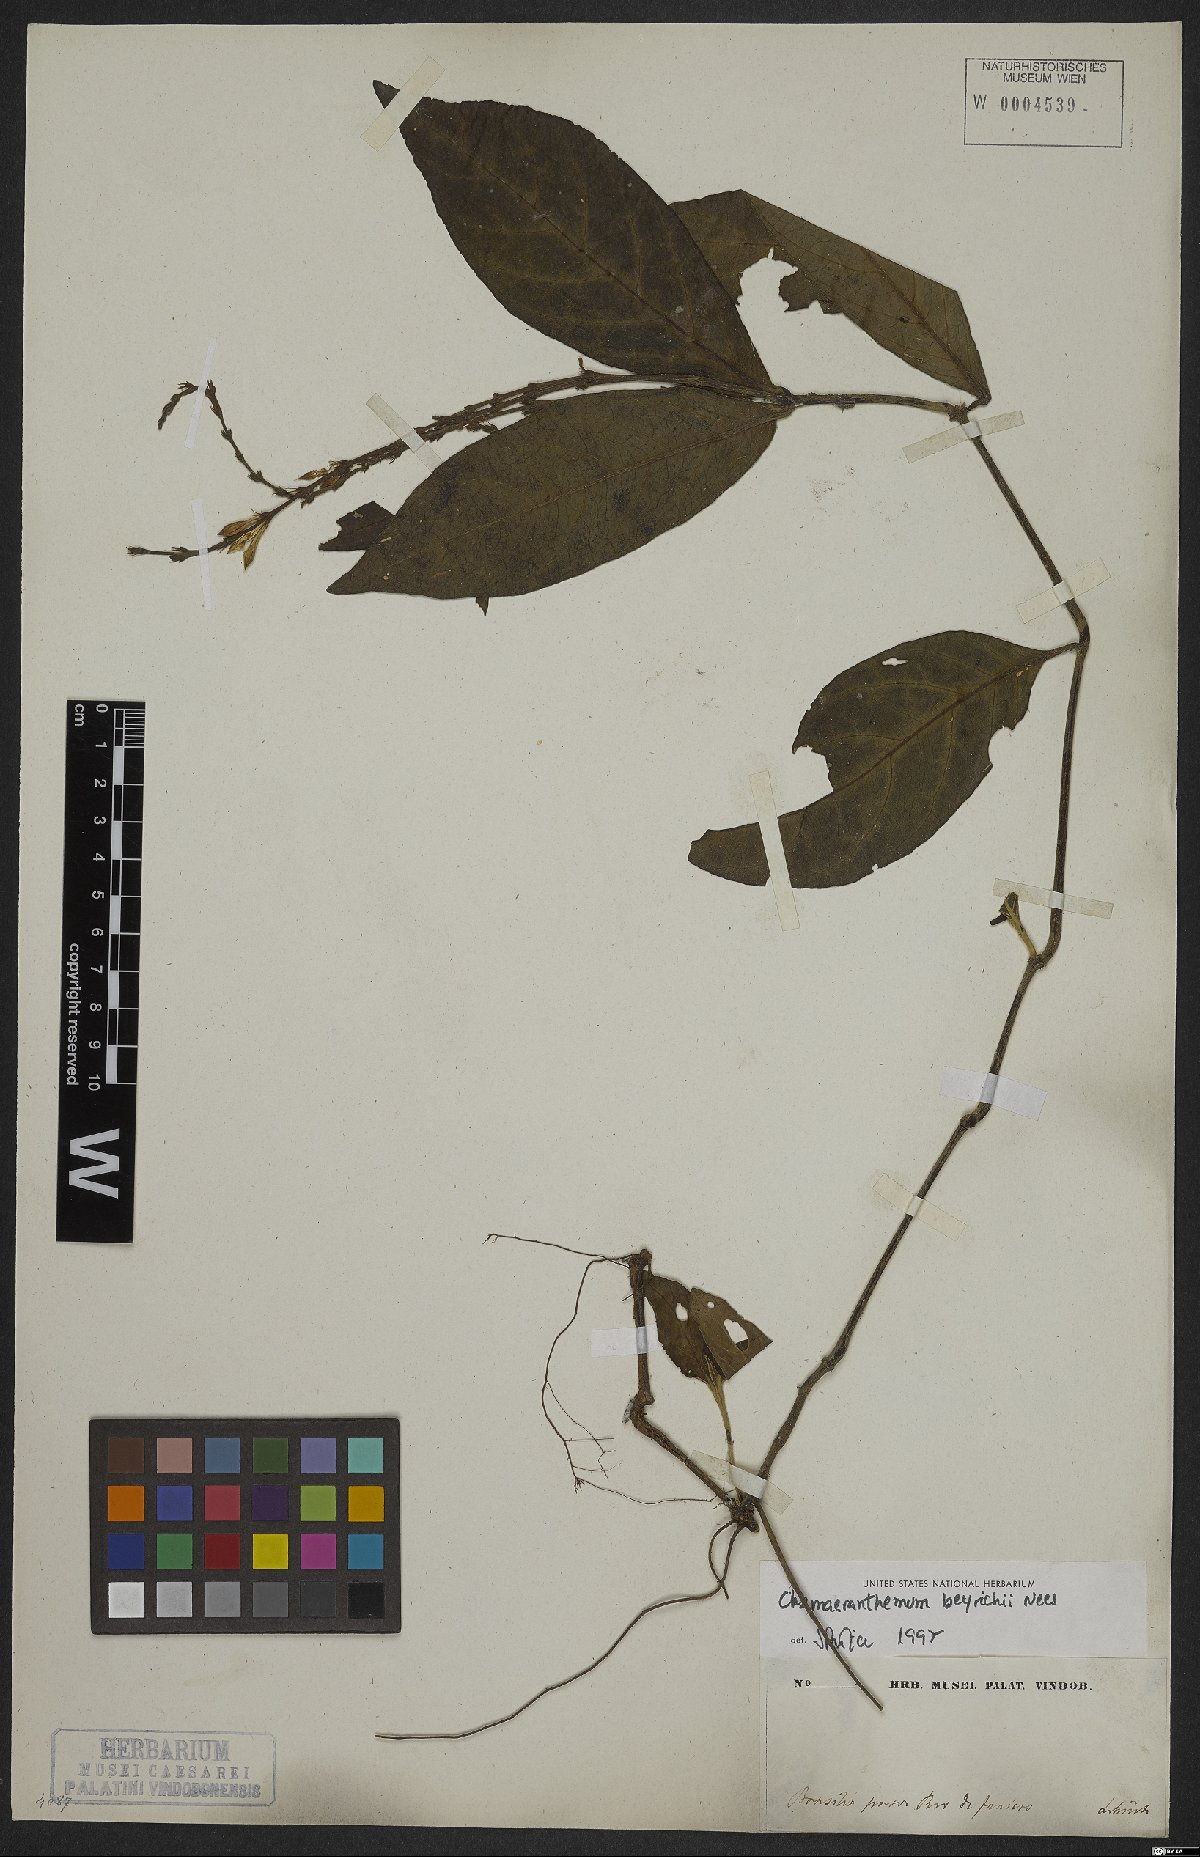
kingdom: Plantae
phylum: Tracheophyta
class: Magnoliopsida
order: Lamiales
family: Acanthaceae
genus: Chamaeranthemum
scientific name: Chamaeranthemum beyrichii
